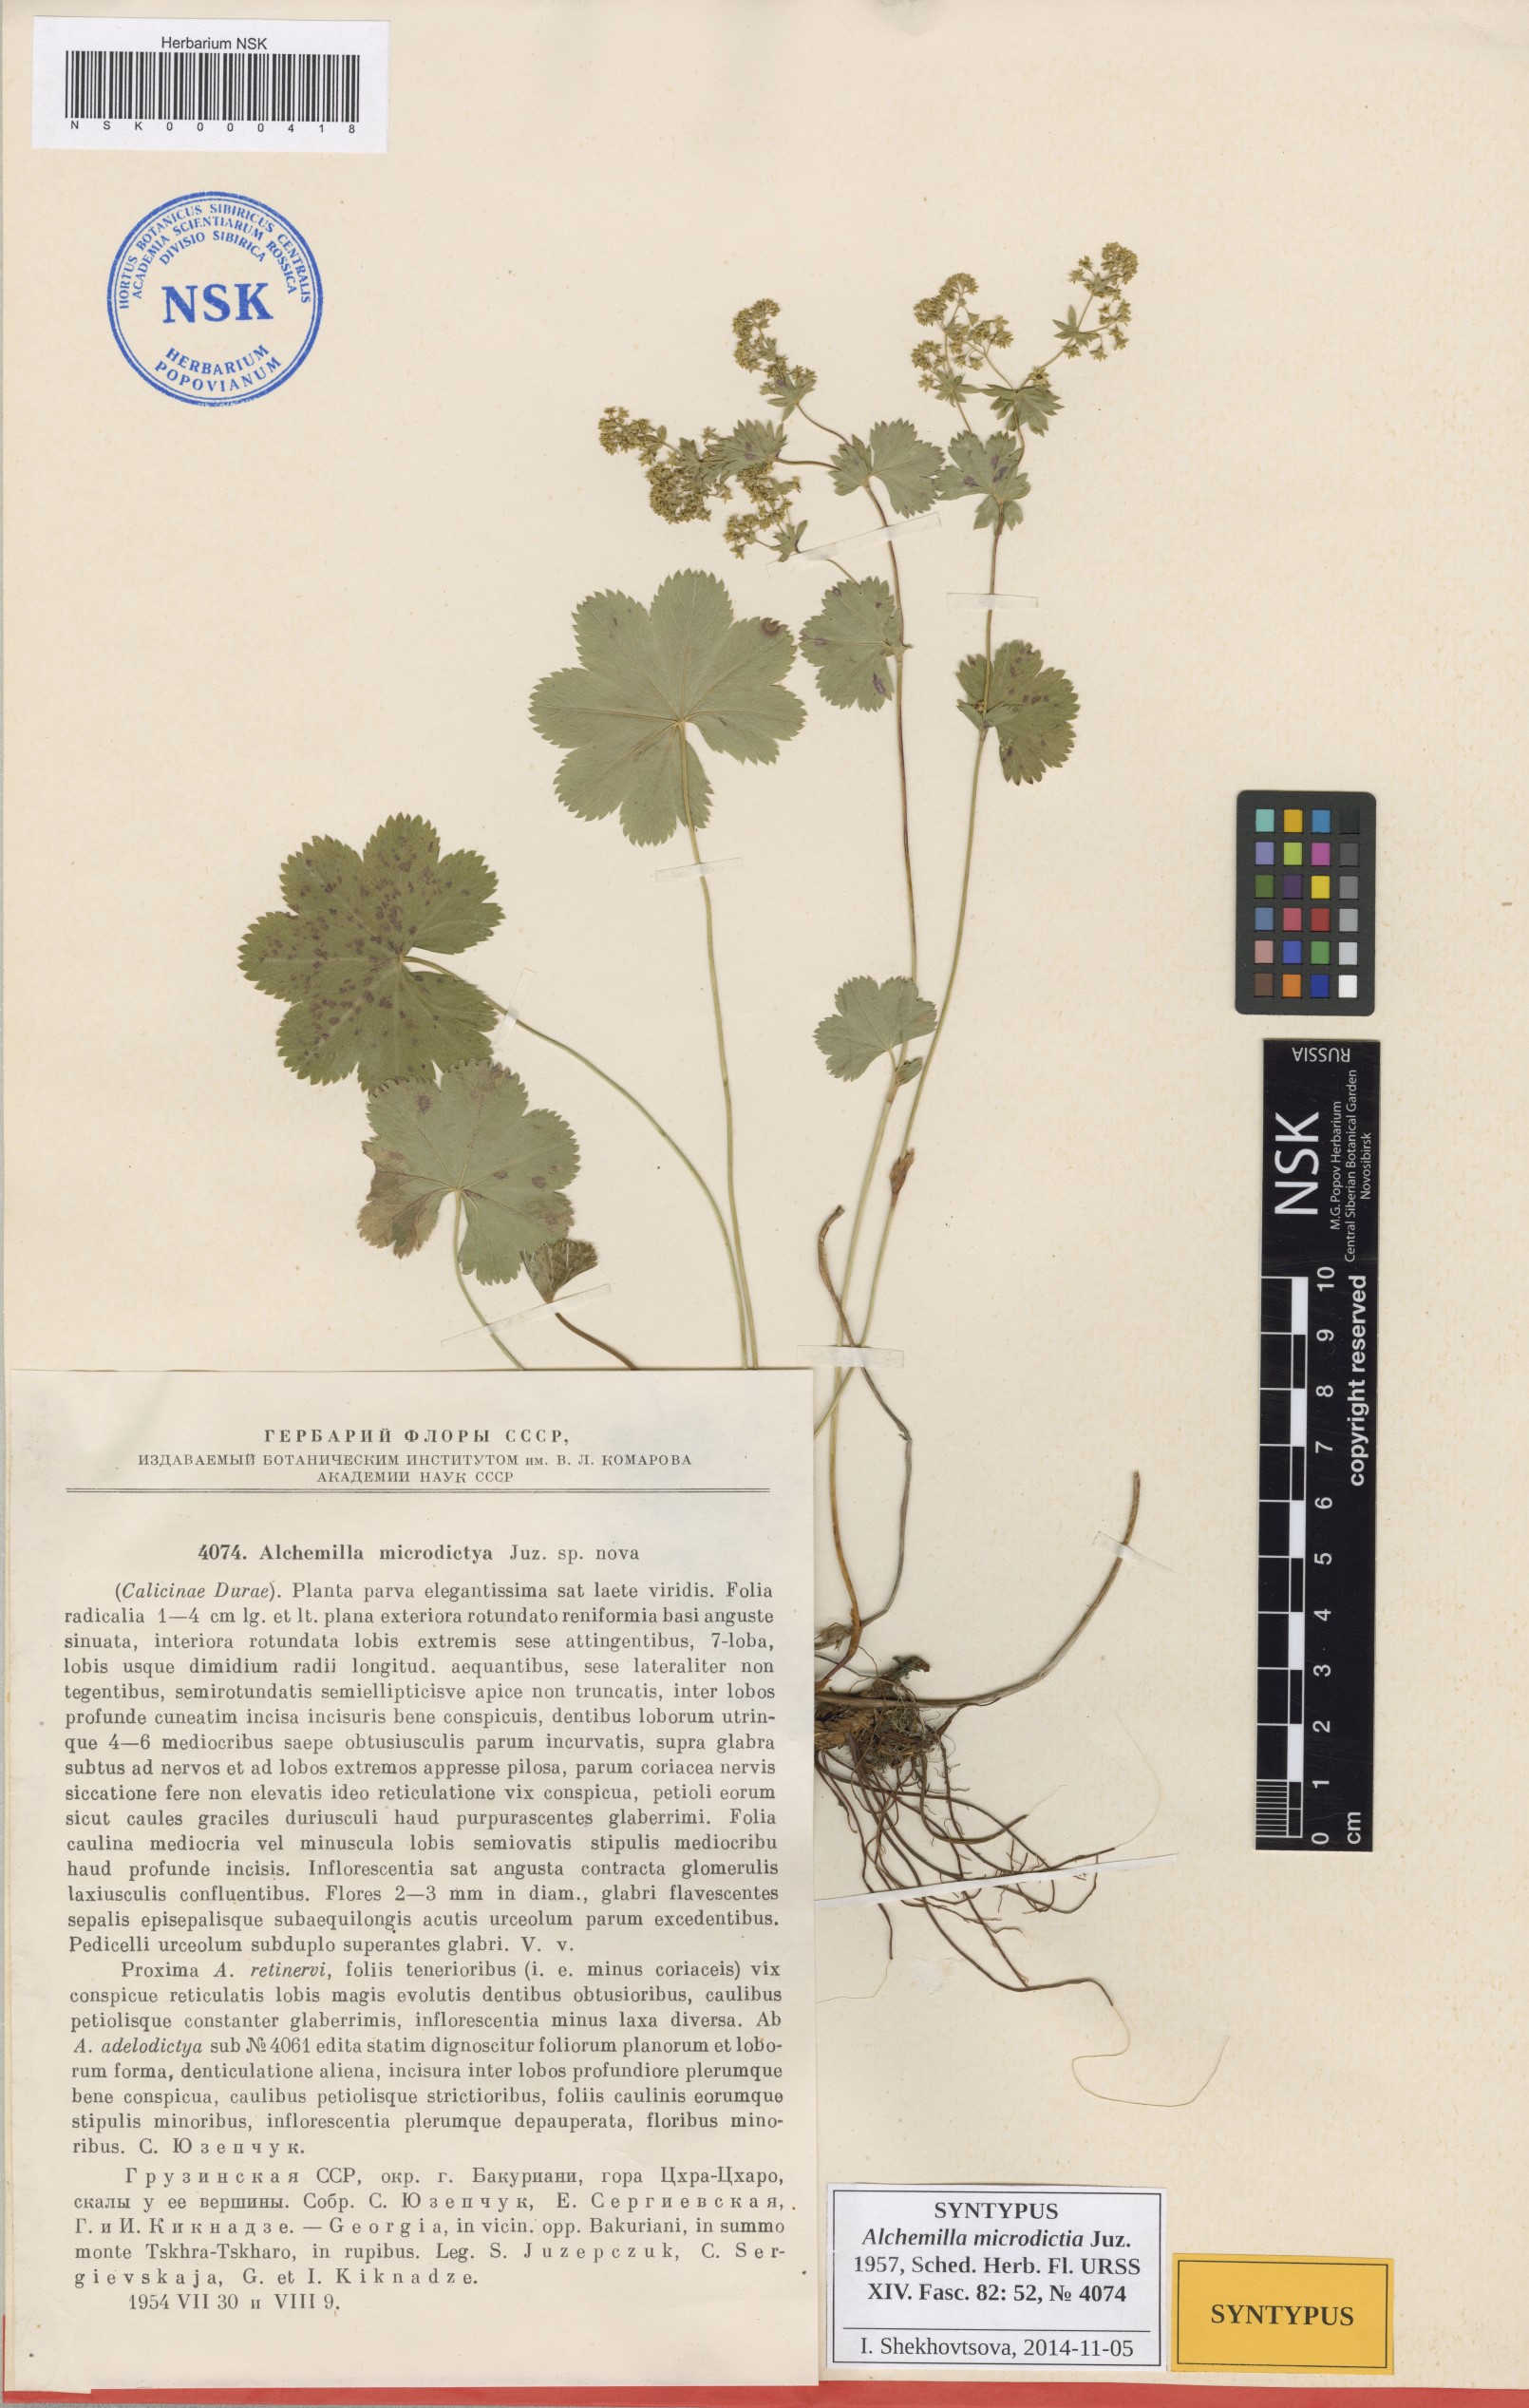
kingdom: Plantae
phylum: Tracheophyta
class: Magnoliopsida
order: Rosales
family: Rosaceae
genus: Alchemilla
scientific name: Alchemilla microdictya
